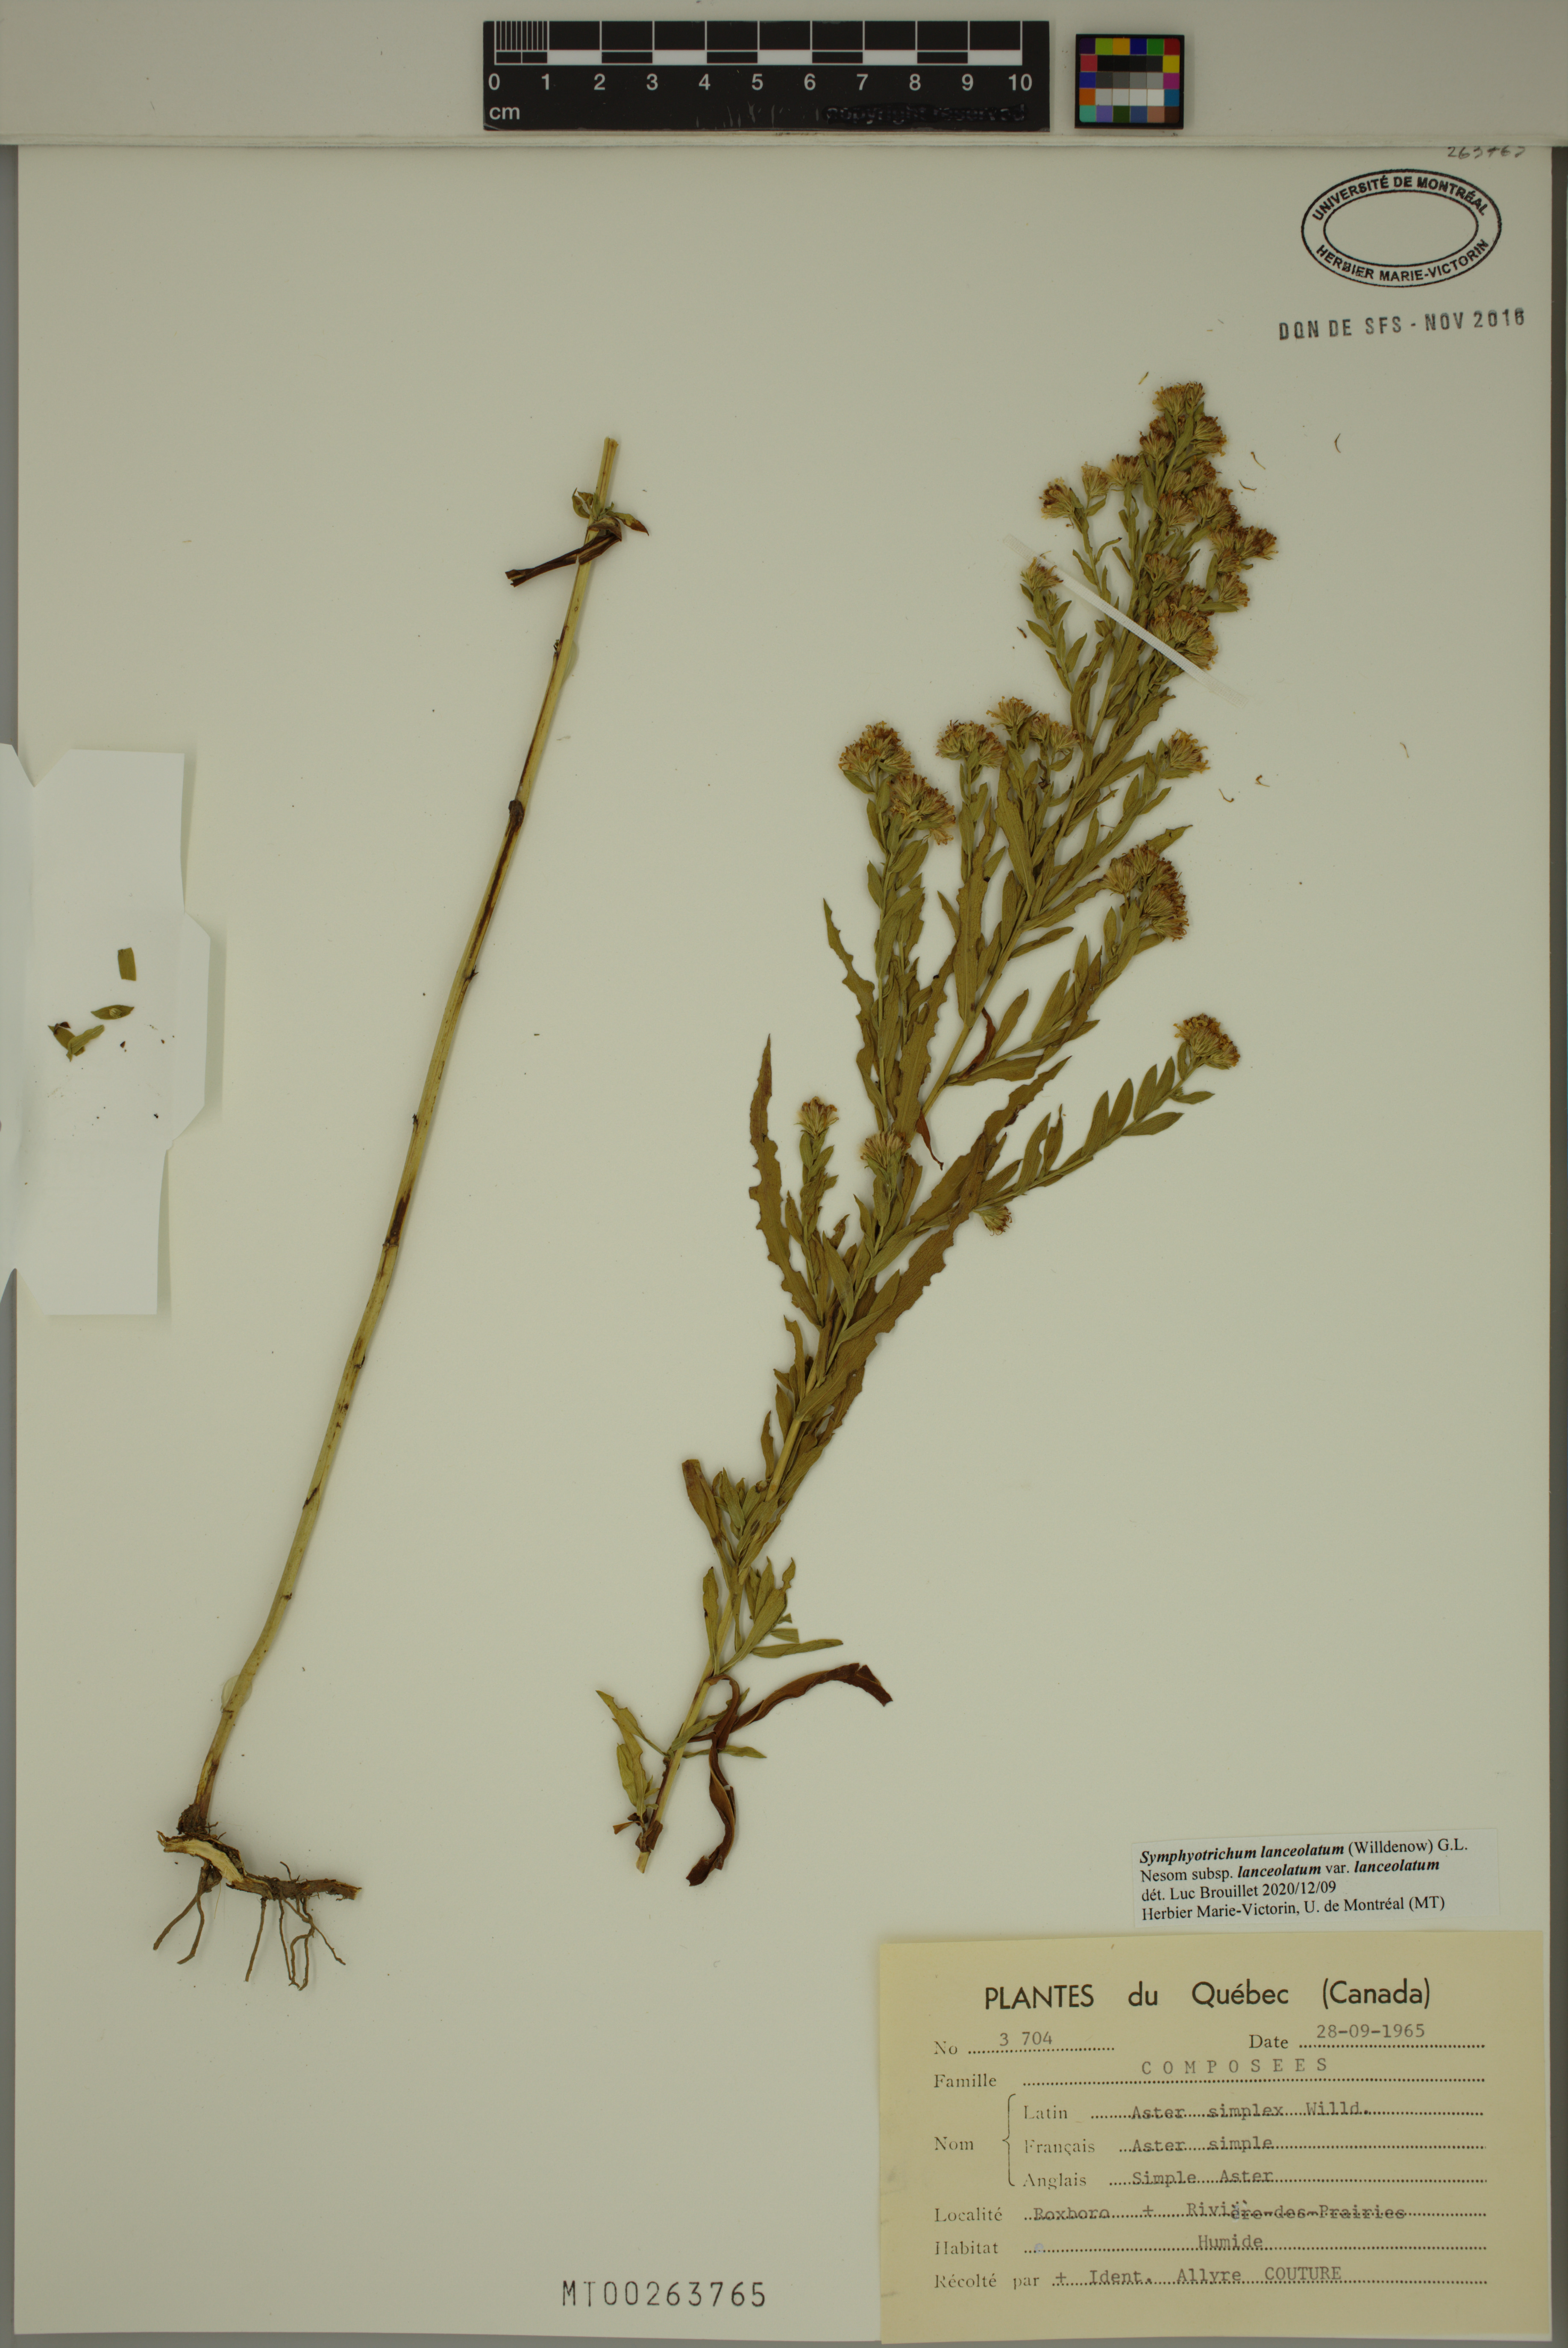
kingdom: Plantae
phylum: Tracheophyta
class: Magnoliopsida
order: Asterales
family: Asteraceae
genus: Symphyotrichum
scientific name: Symphyotrichum lanceolatum
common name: Panicled aster
